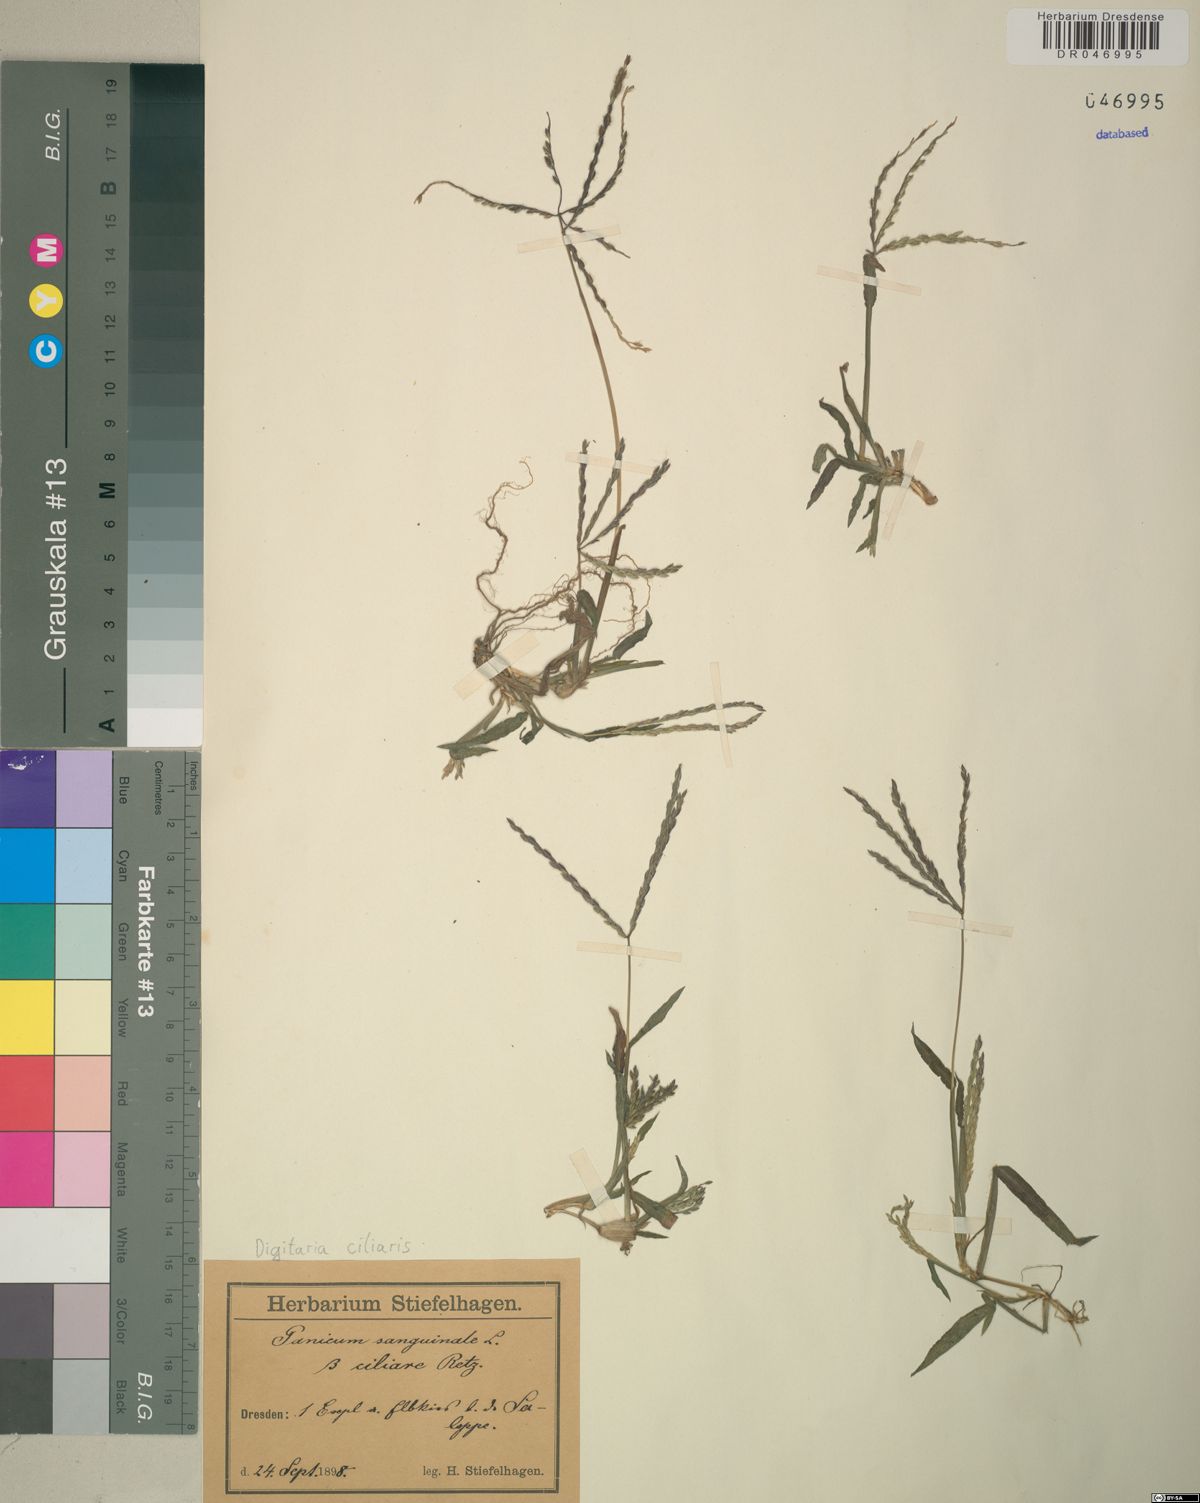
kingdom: Plantae
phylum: Tracheophyta
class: Liliopsida
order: Poales
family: Poaceae
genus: Digitaria
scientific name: Digitaria ciliaris
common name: Tropical finger-grass
